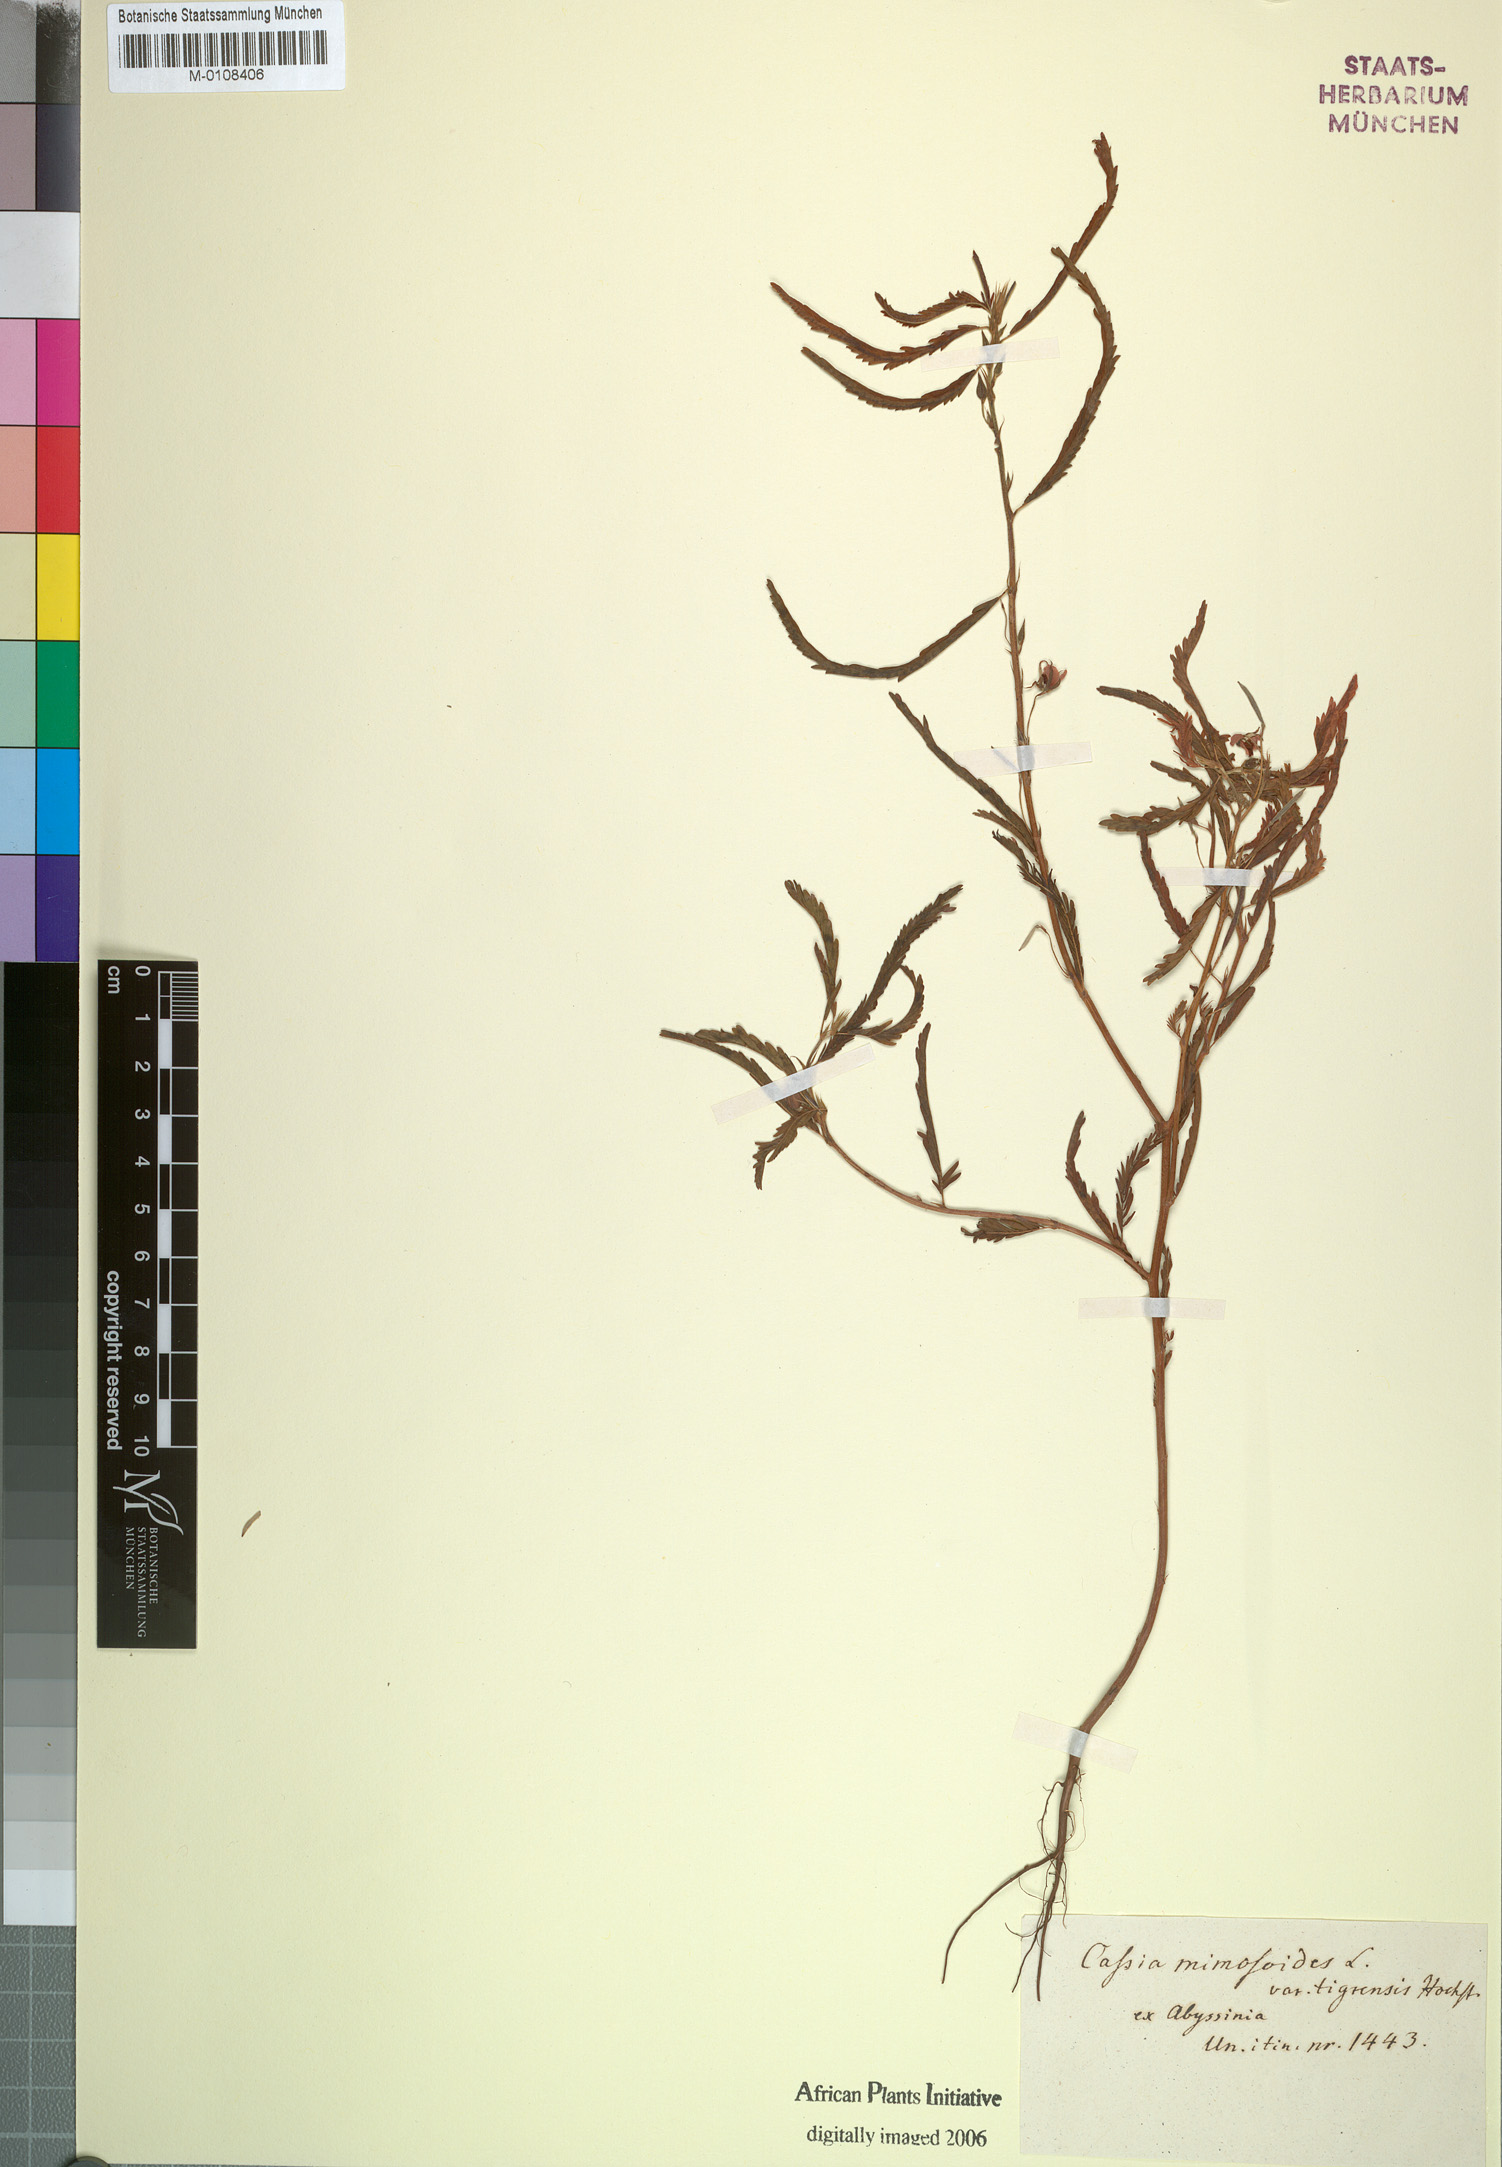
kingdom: Plantae
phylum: Tracheophyta
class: Magnoliopsida
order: Fabales
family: Fabaceae
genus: Chamaecrista
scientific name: Chamaecrista mimosoides
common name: Fish-bone cassia
